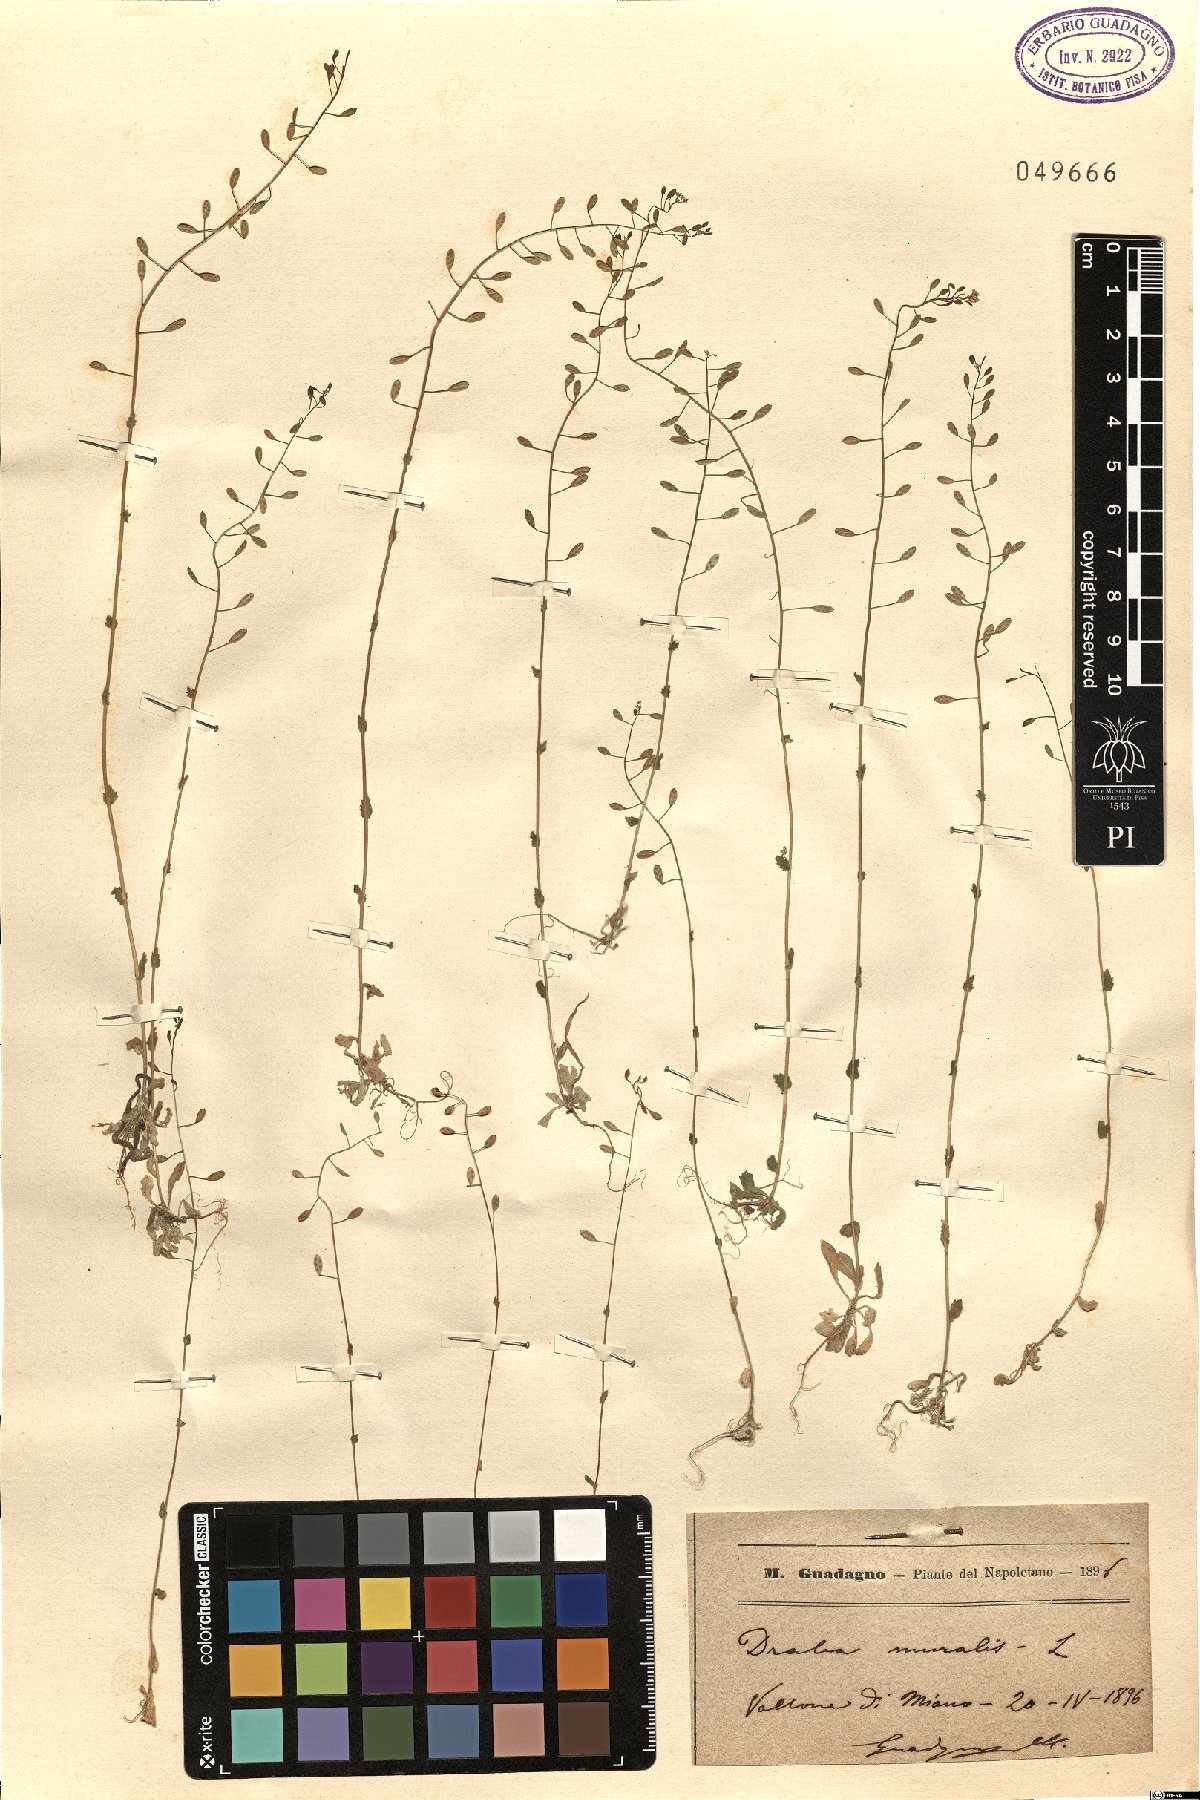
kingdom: Plantae
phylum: Tracheophyta
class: Magnoliopsida
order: Brassicales
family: Brassicaceae
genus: Drabella
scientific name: Drabella muralis
